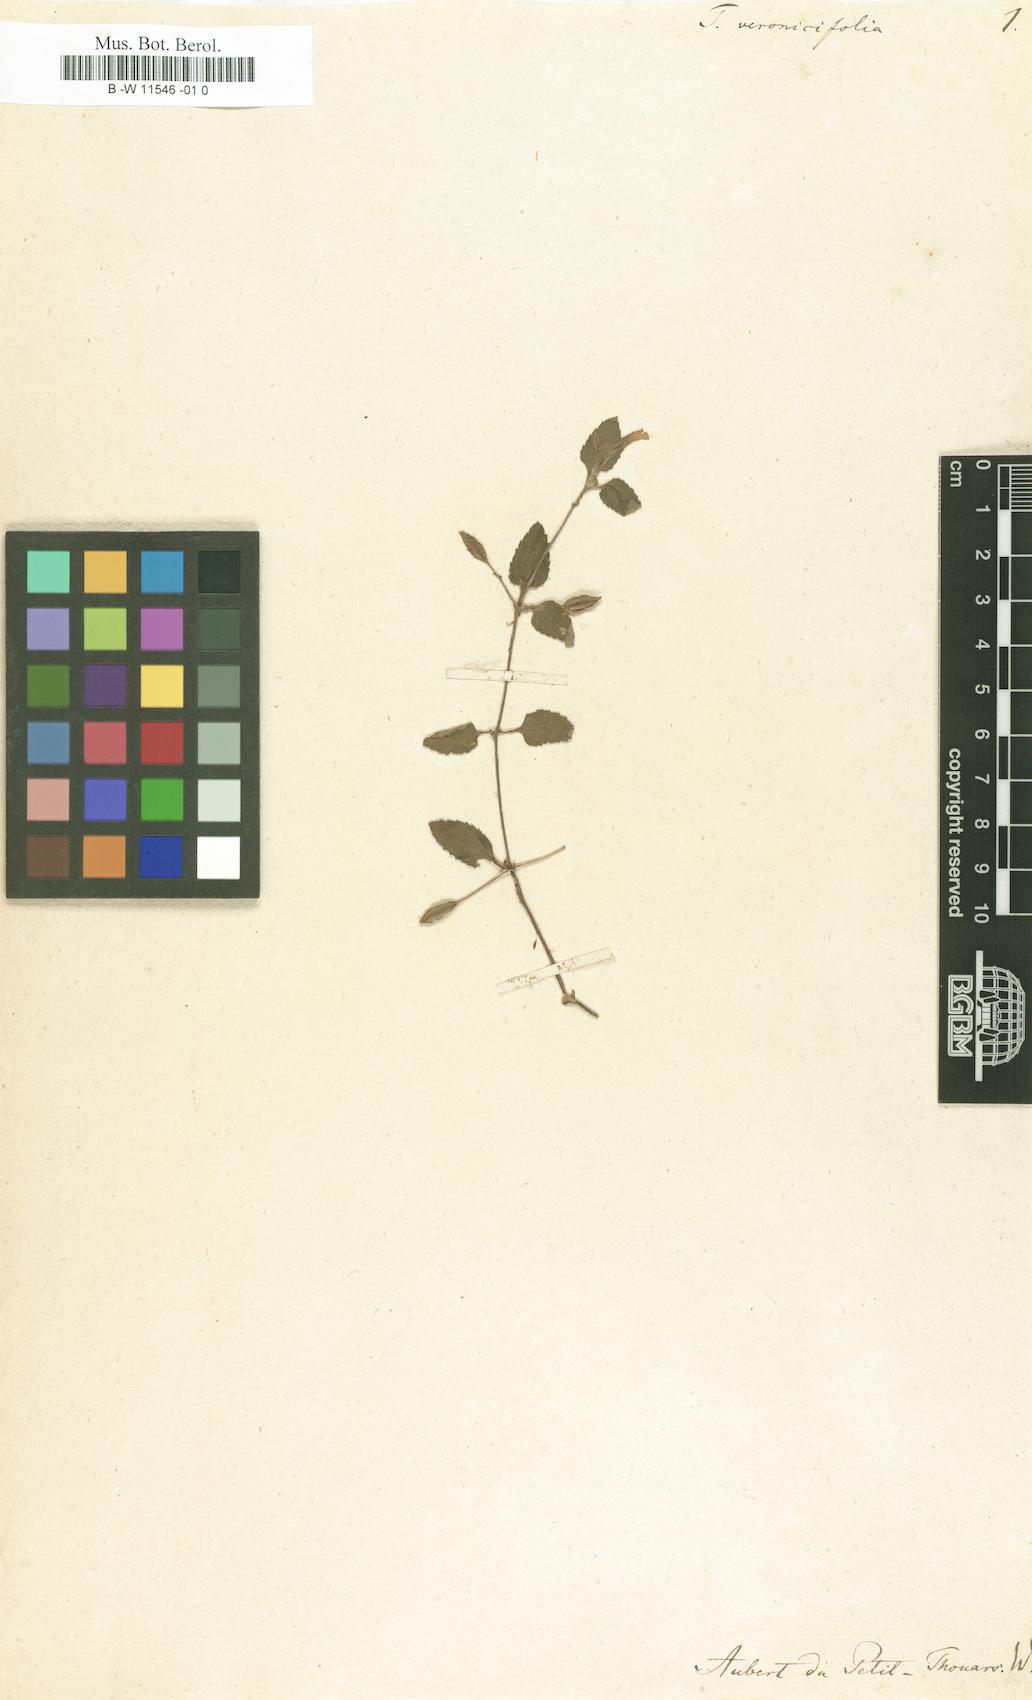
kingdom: Plantae
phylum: Tracheophyta
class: Magnoliopsida
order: Lamiales
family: Linderniaceae
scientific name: Linderniaceae
